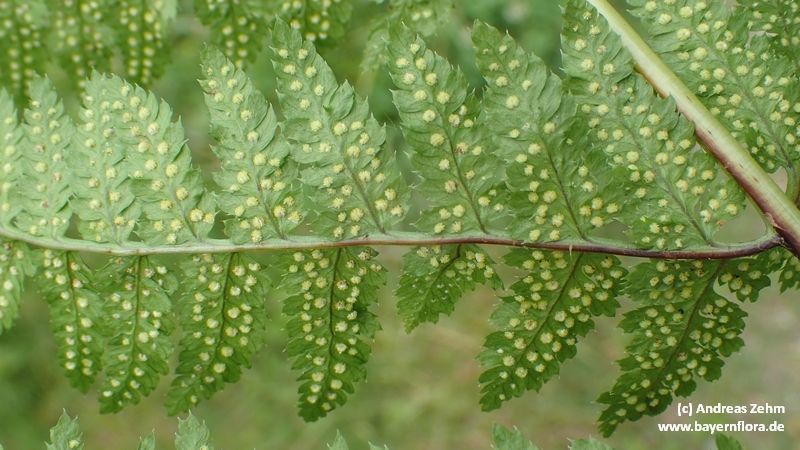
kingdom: Plantae
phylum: Tracheophyta
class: Polypodiopsida
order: Polypodiales
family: Dryopteridaceae
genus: Dryopteris
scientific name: Dryopteris
